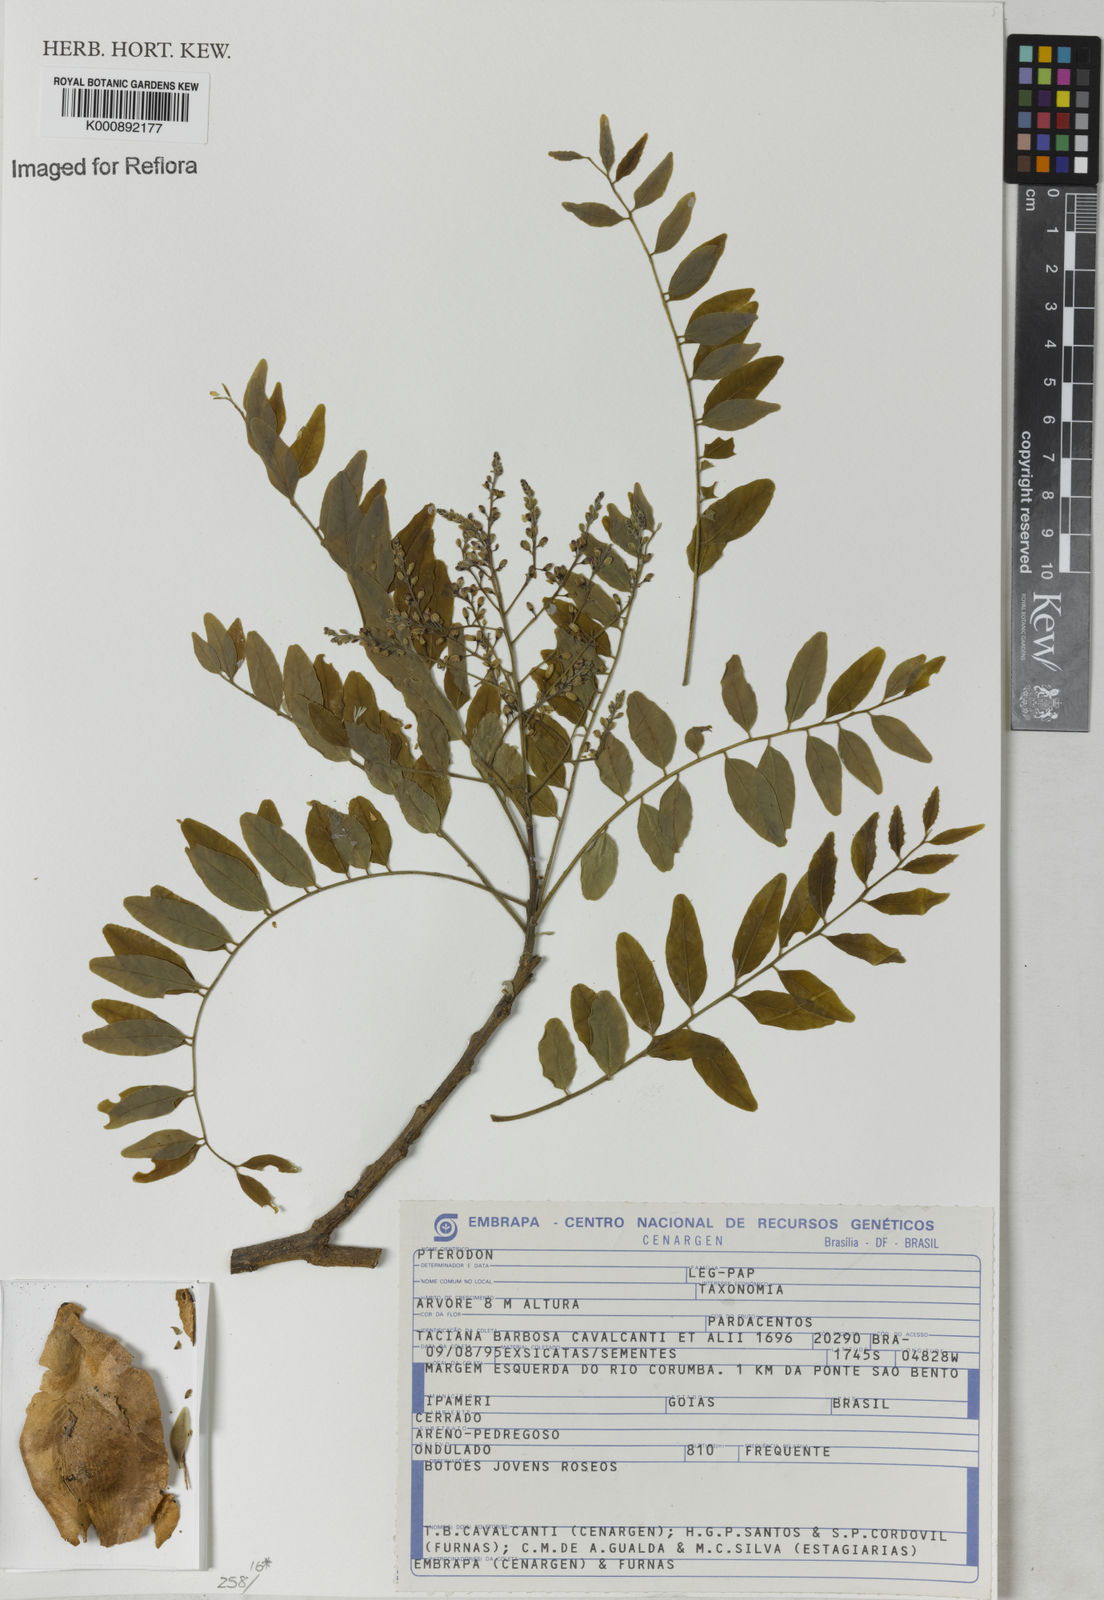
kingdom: Plantae
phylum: Tracheophyta
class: Magnoliopsida
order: Fabales
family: Fabaceae
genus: Pterodon
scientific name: Pterodon
